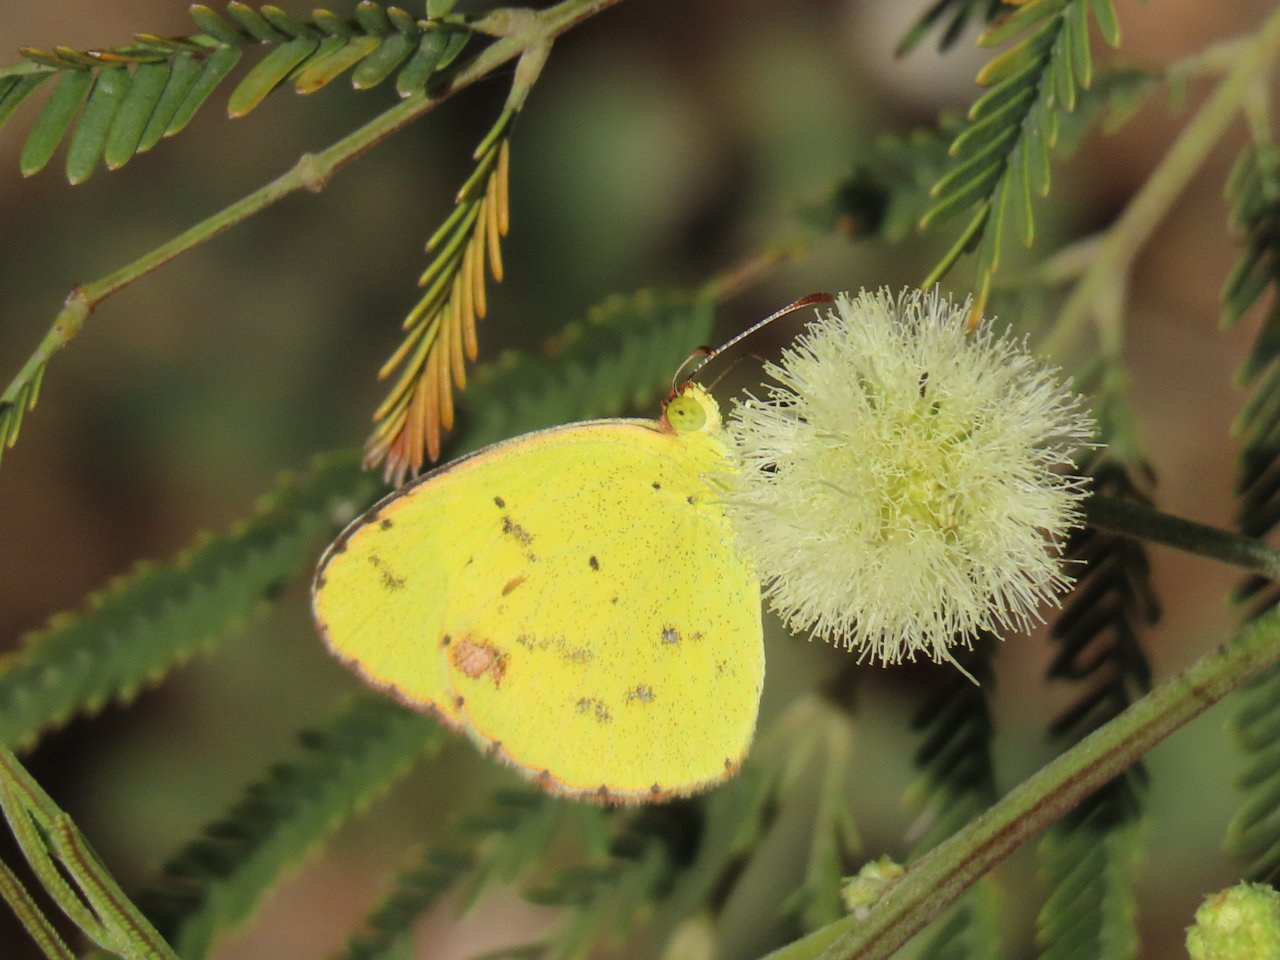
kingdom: Animalia
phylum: Arthropoda
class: Insecta
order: Lepidoptera
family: Pieridae
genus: Pyrisitia
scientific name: Pyrisitia lisa
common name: Little Yellow
